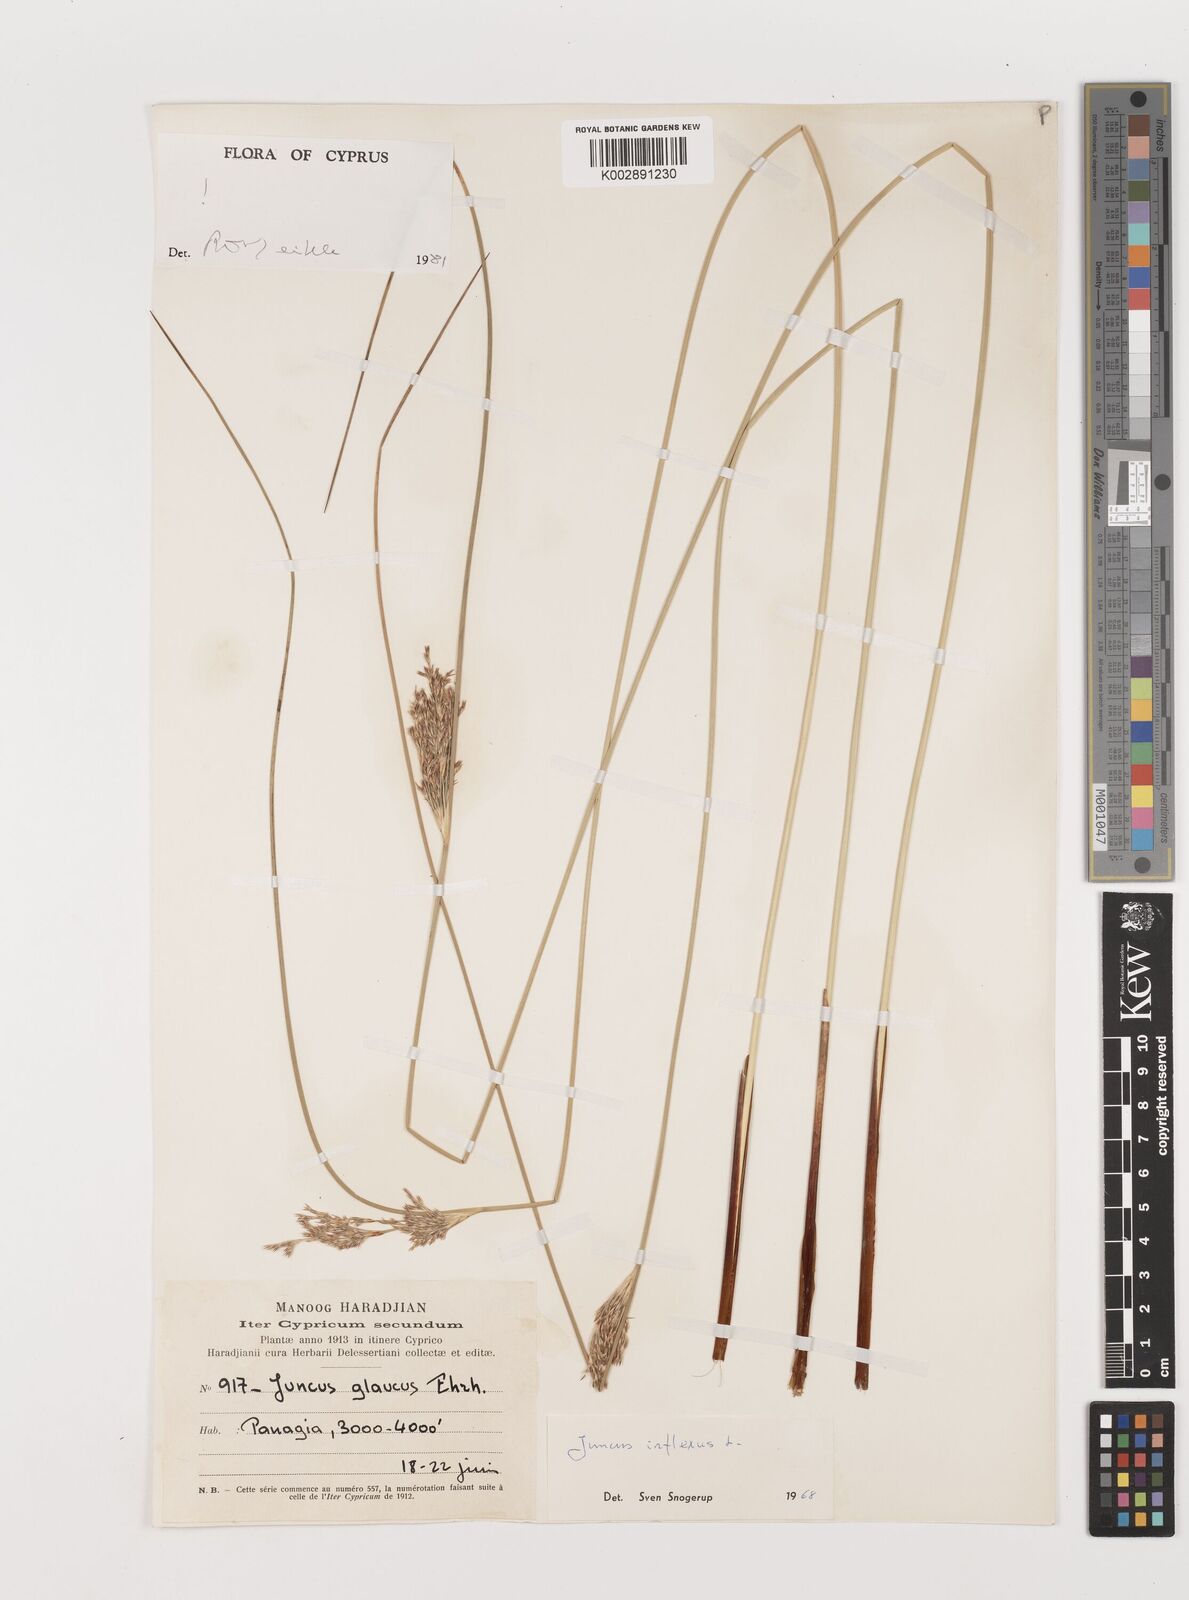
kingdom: Plantae
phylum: Tracheophyta
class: Liliopsida
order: Poales
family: Juncaceae
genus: Juncus
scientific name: Juncus inflexus
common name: Hard rush
